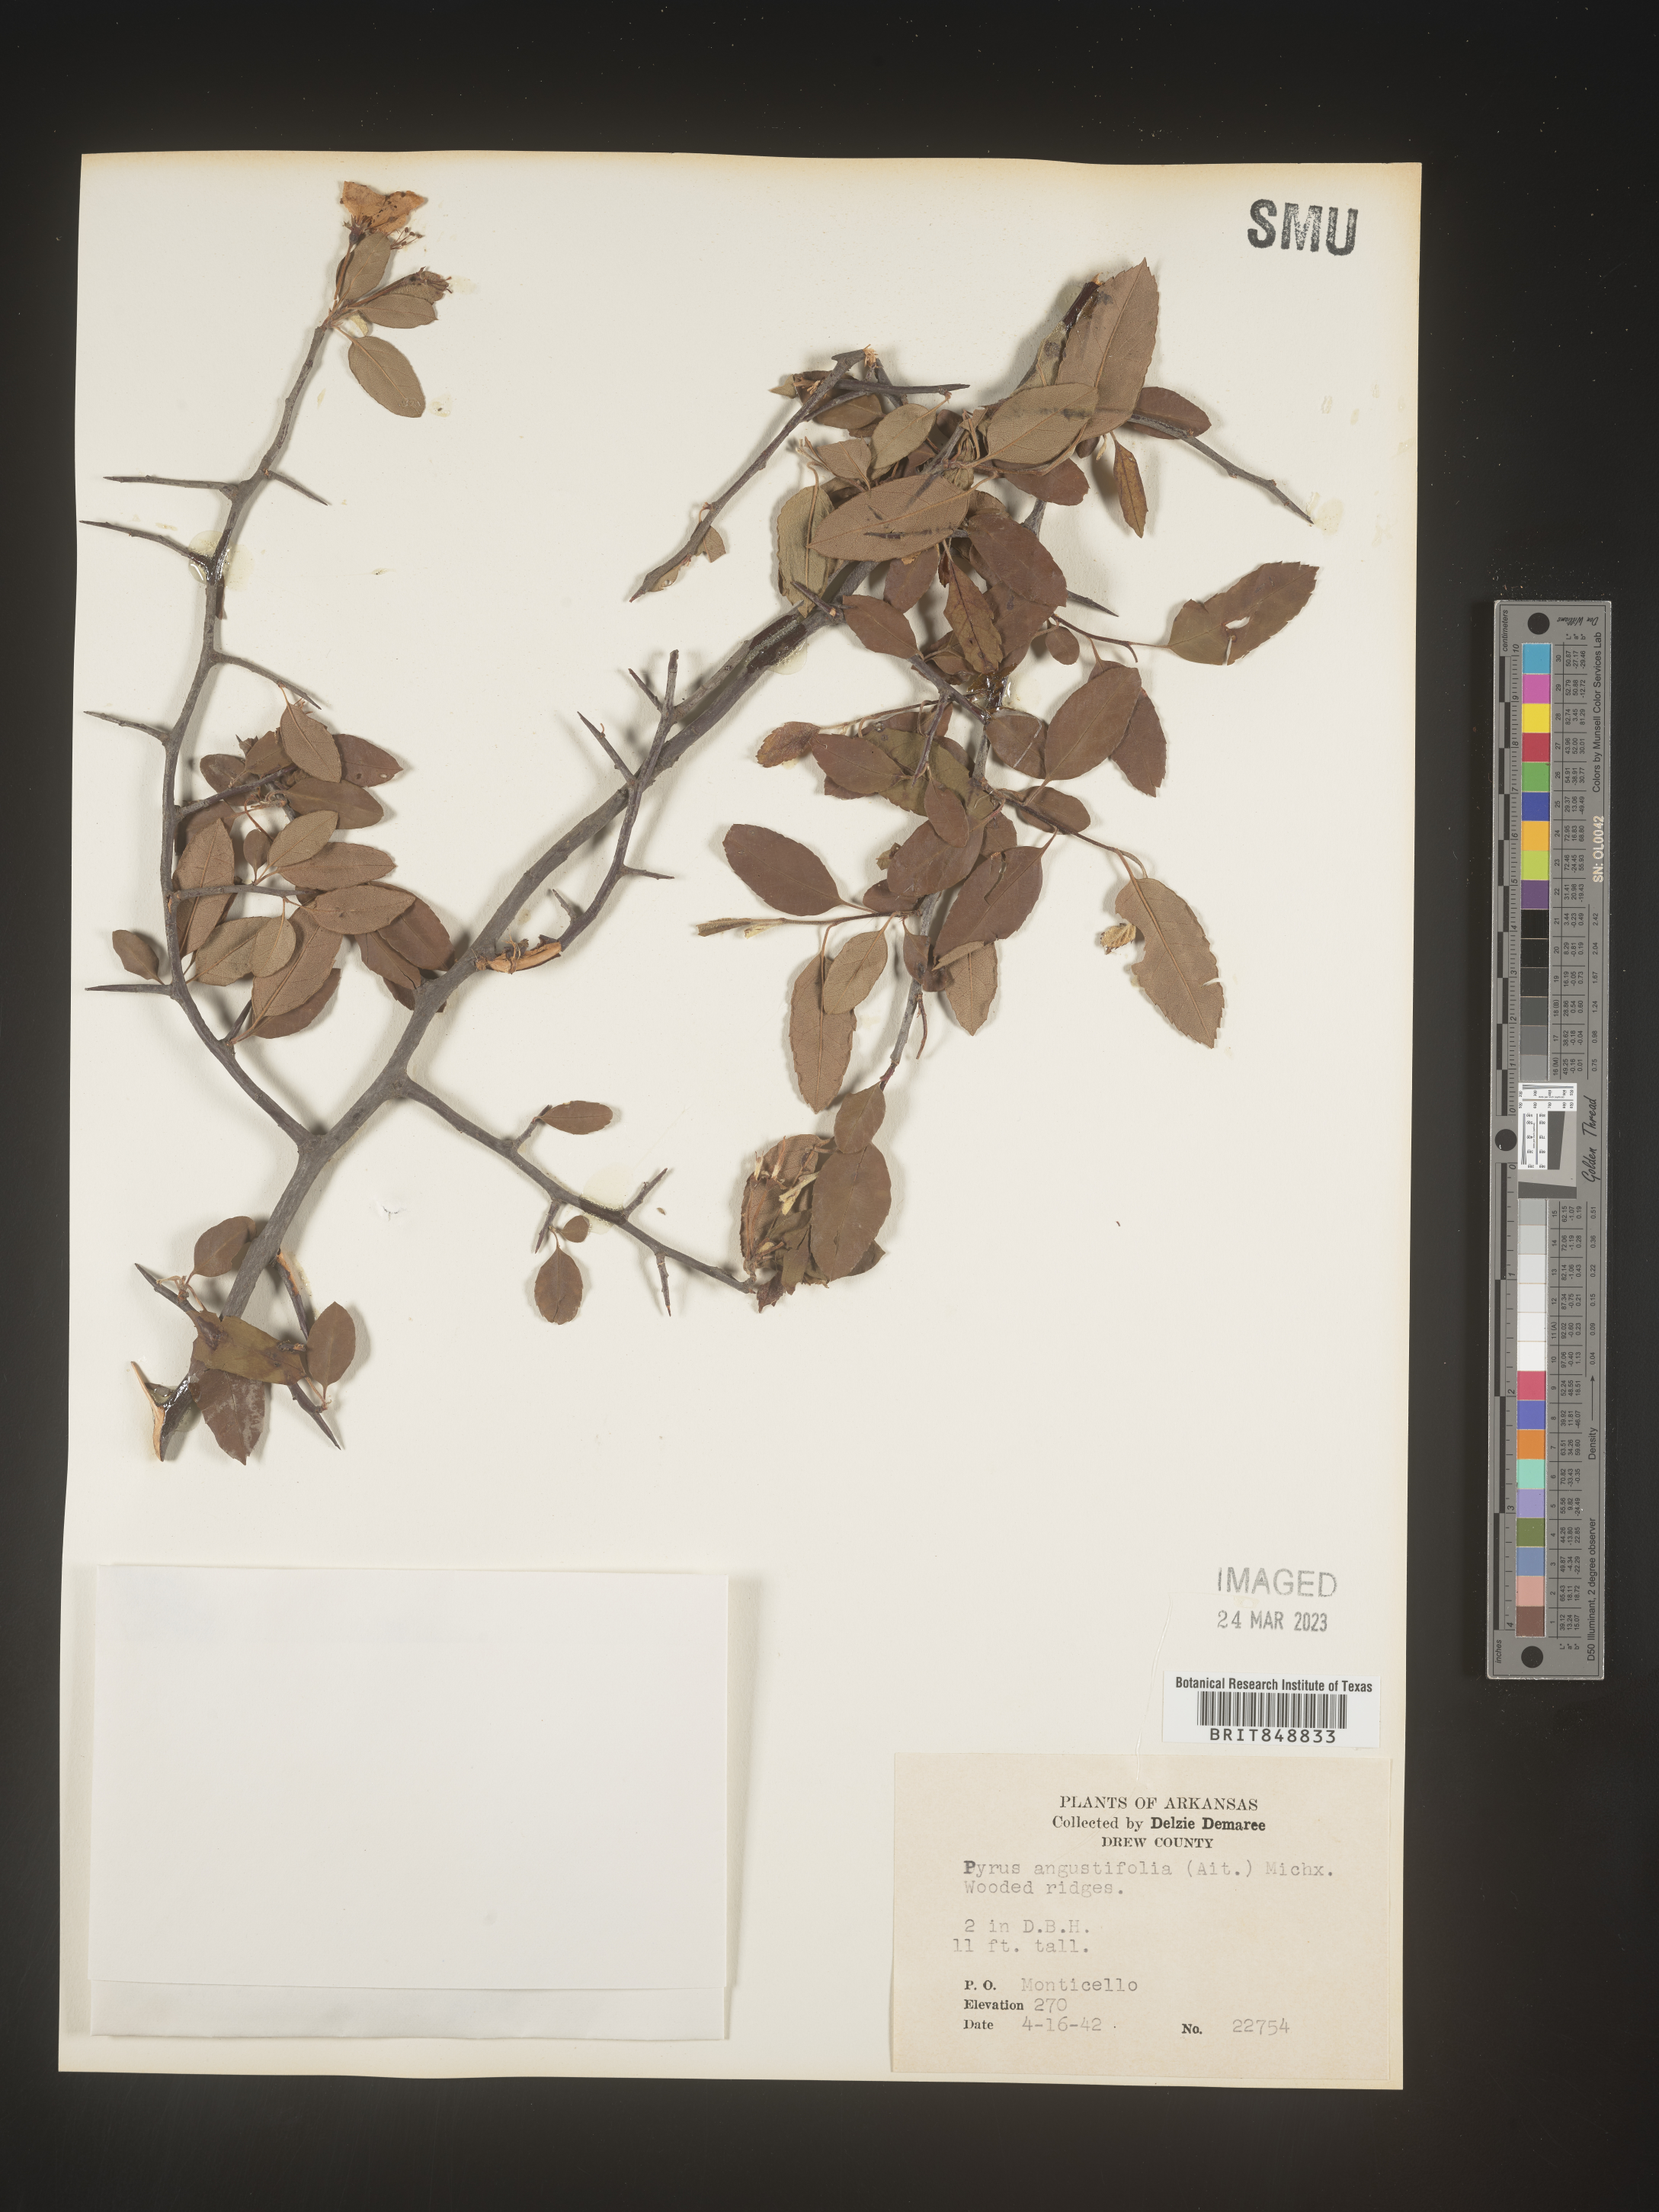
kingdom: Plantae
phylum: Tracheophyta
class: Magnoliopsida
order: Rosales
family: Rosaceae
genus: Malus
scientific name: Malus angustifolia
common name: Southern crab apple
